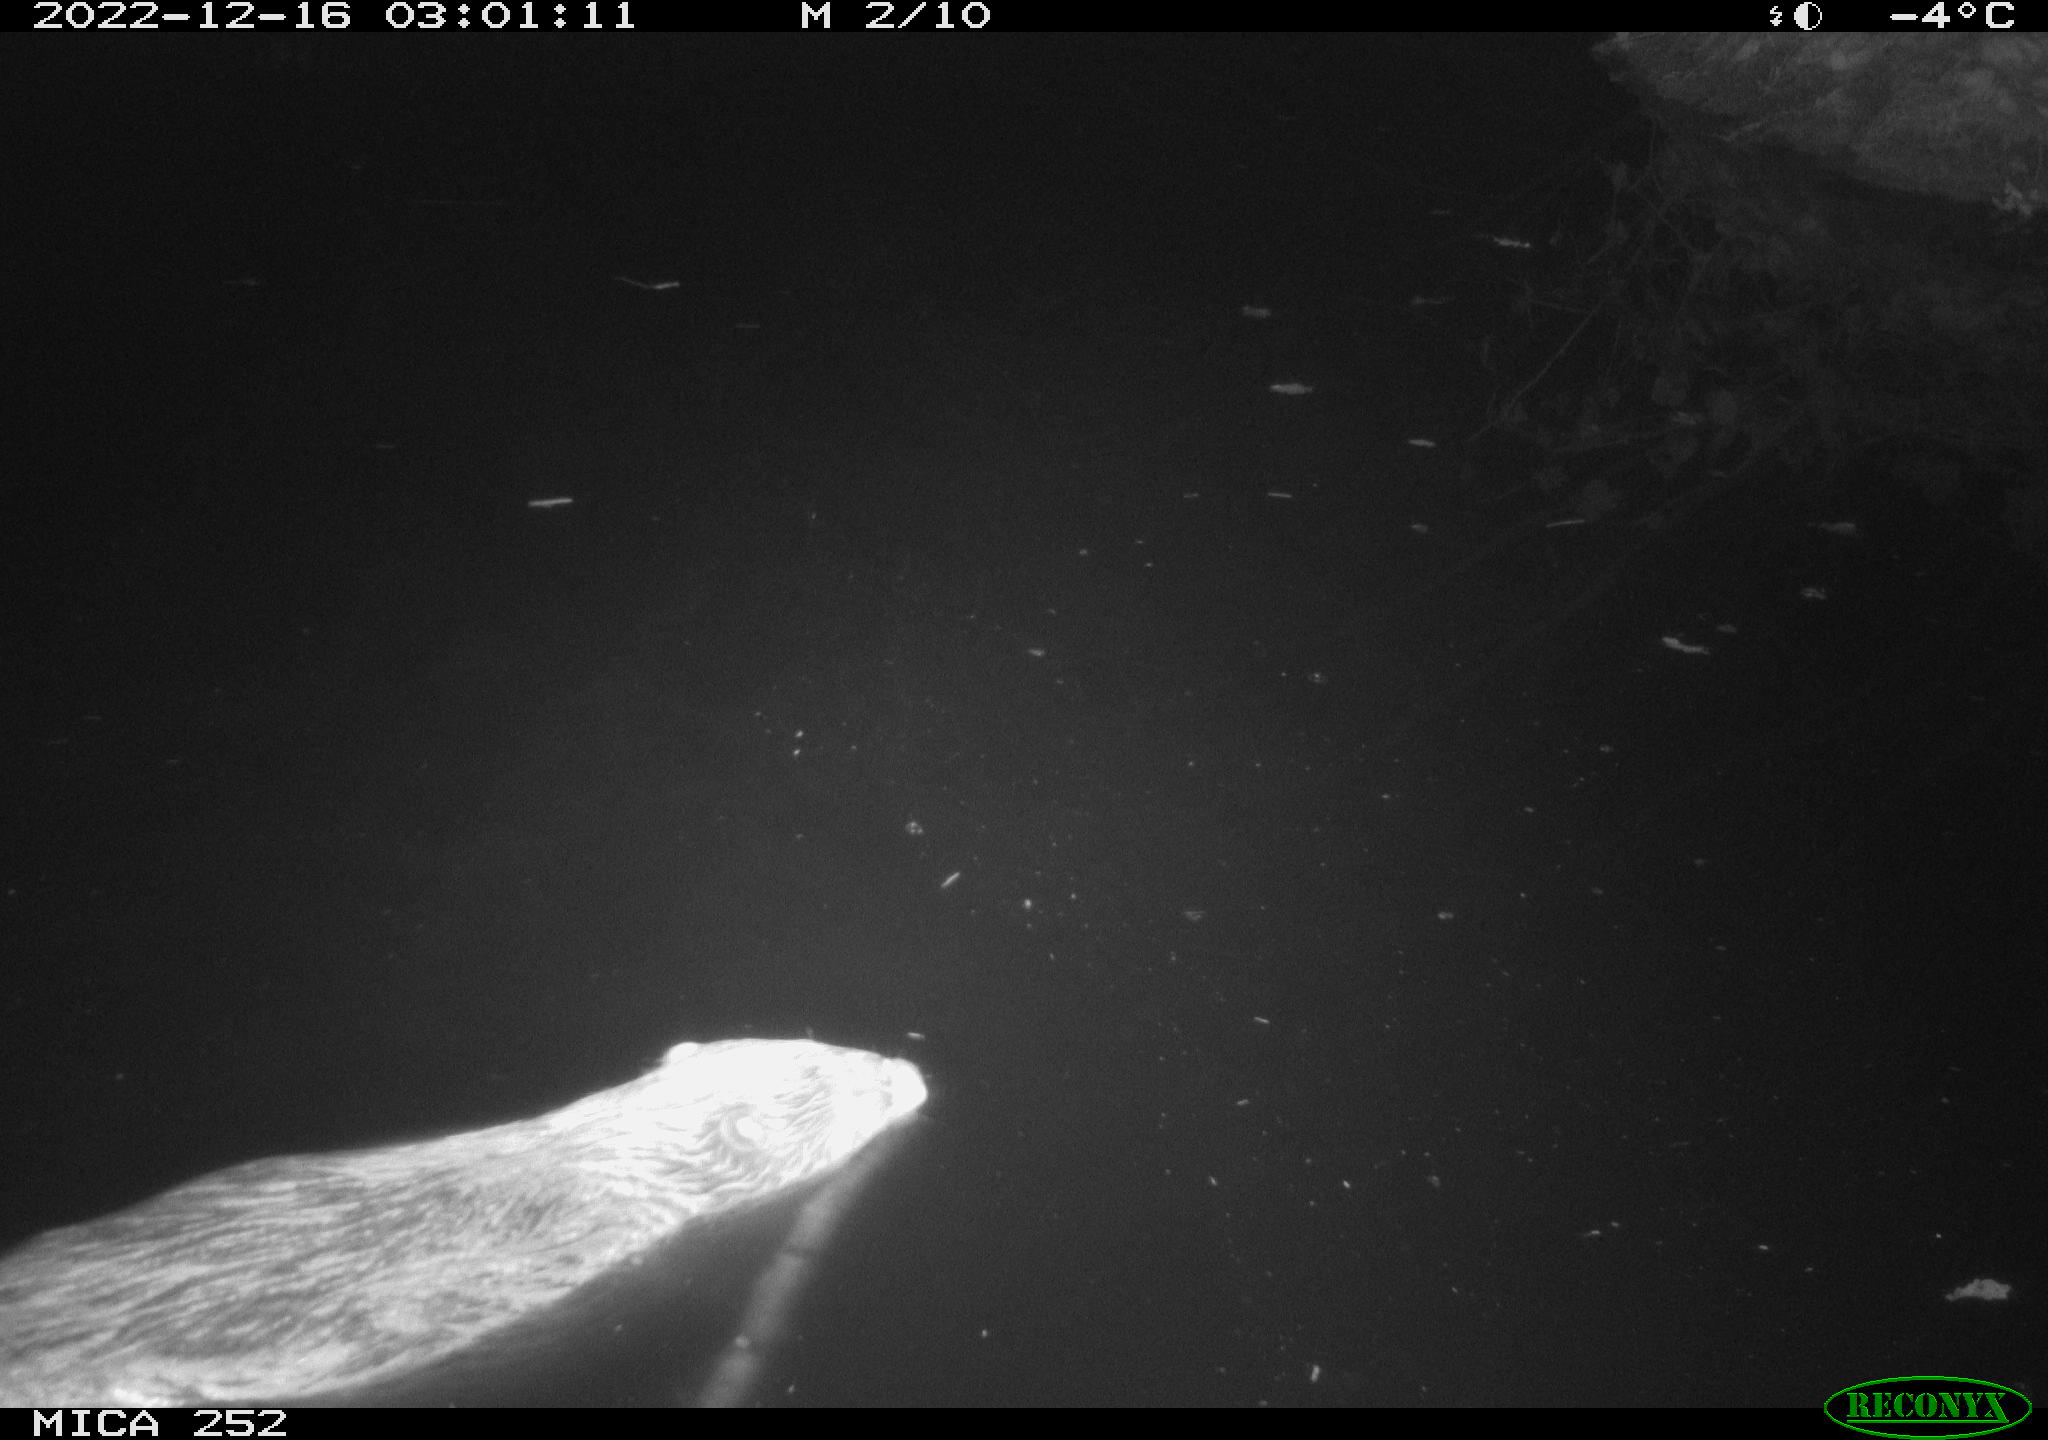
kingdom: Animalia
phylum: Chordata
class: Mammalia
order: Rodentia
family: Castoridae
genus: Castor
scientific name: Castor fiber
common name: Eurasian beaver
